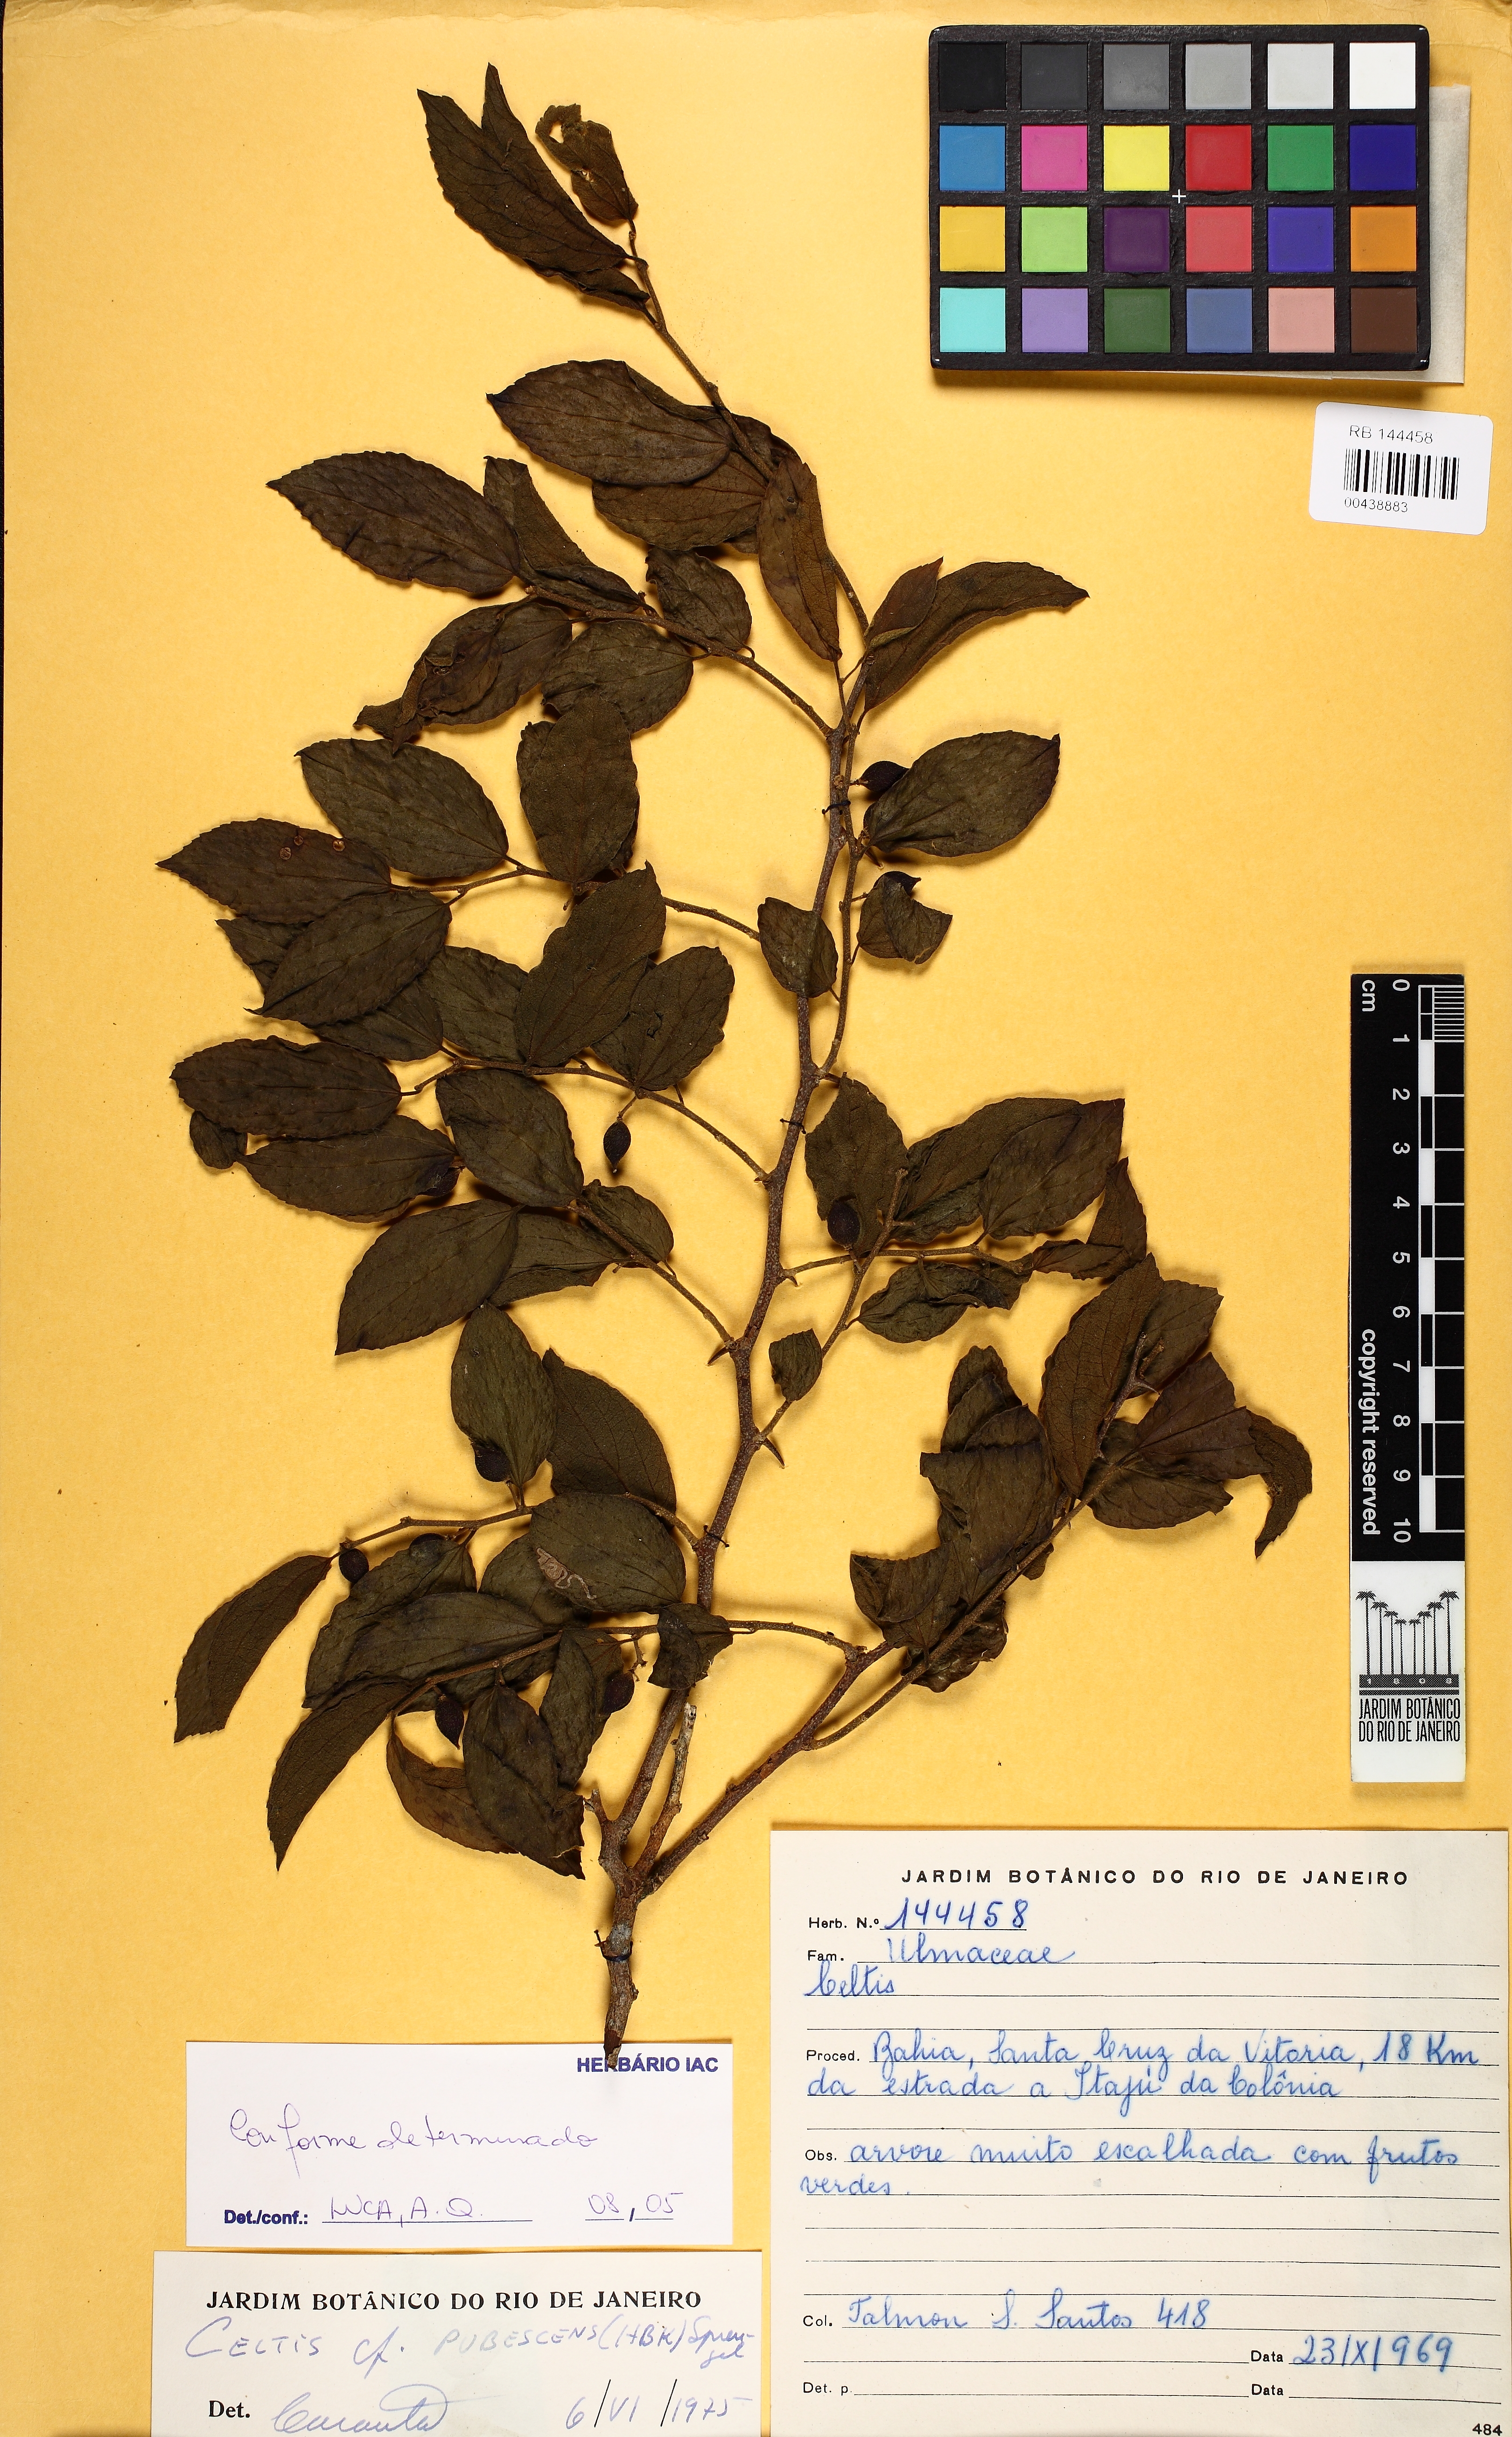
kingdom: Plantae
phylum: Tracheophyta
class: Magnoliopsida
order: Rosales
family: Cannabaceae
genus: Celtis
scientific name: Celtis iguanaea
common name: Iguana hackberry
